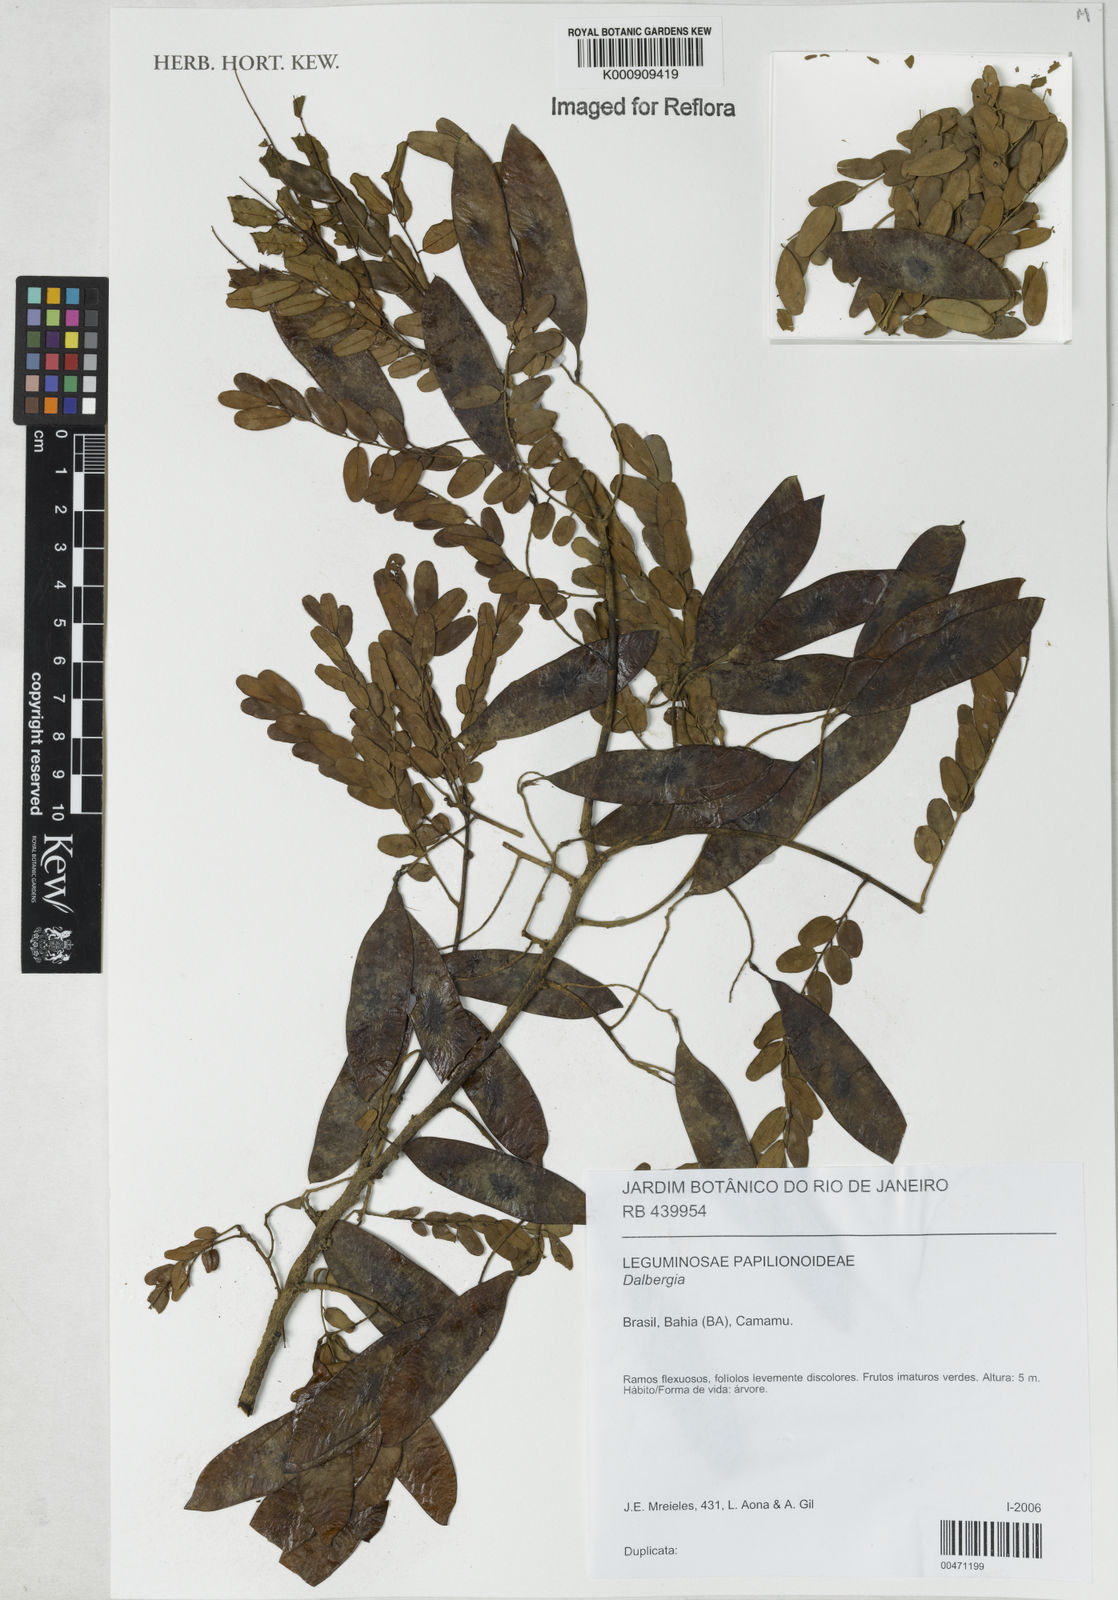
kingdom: Plantae
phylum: Tracheophyta
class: Magnoliopsida
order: Fabales
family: Fabaceae
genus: Dalbergia
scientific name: Dalbergia
